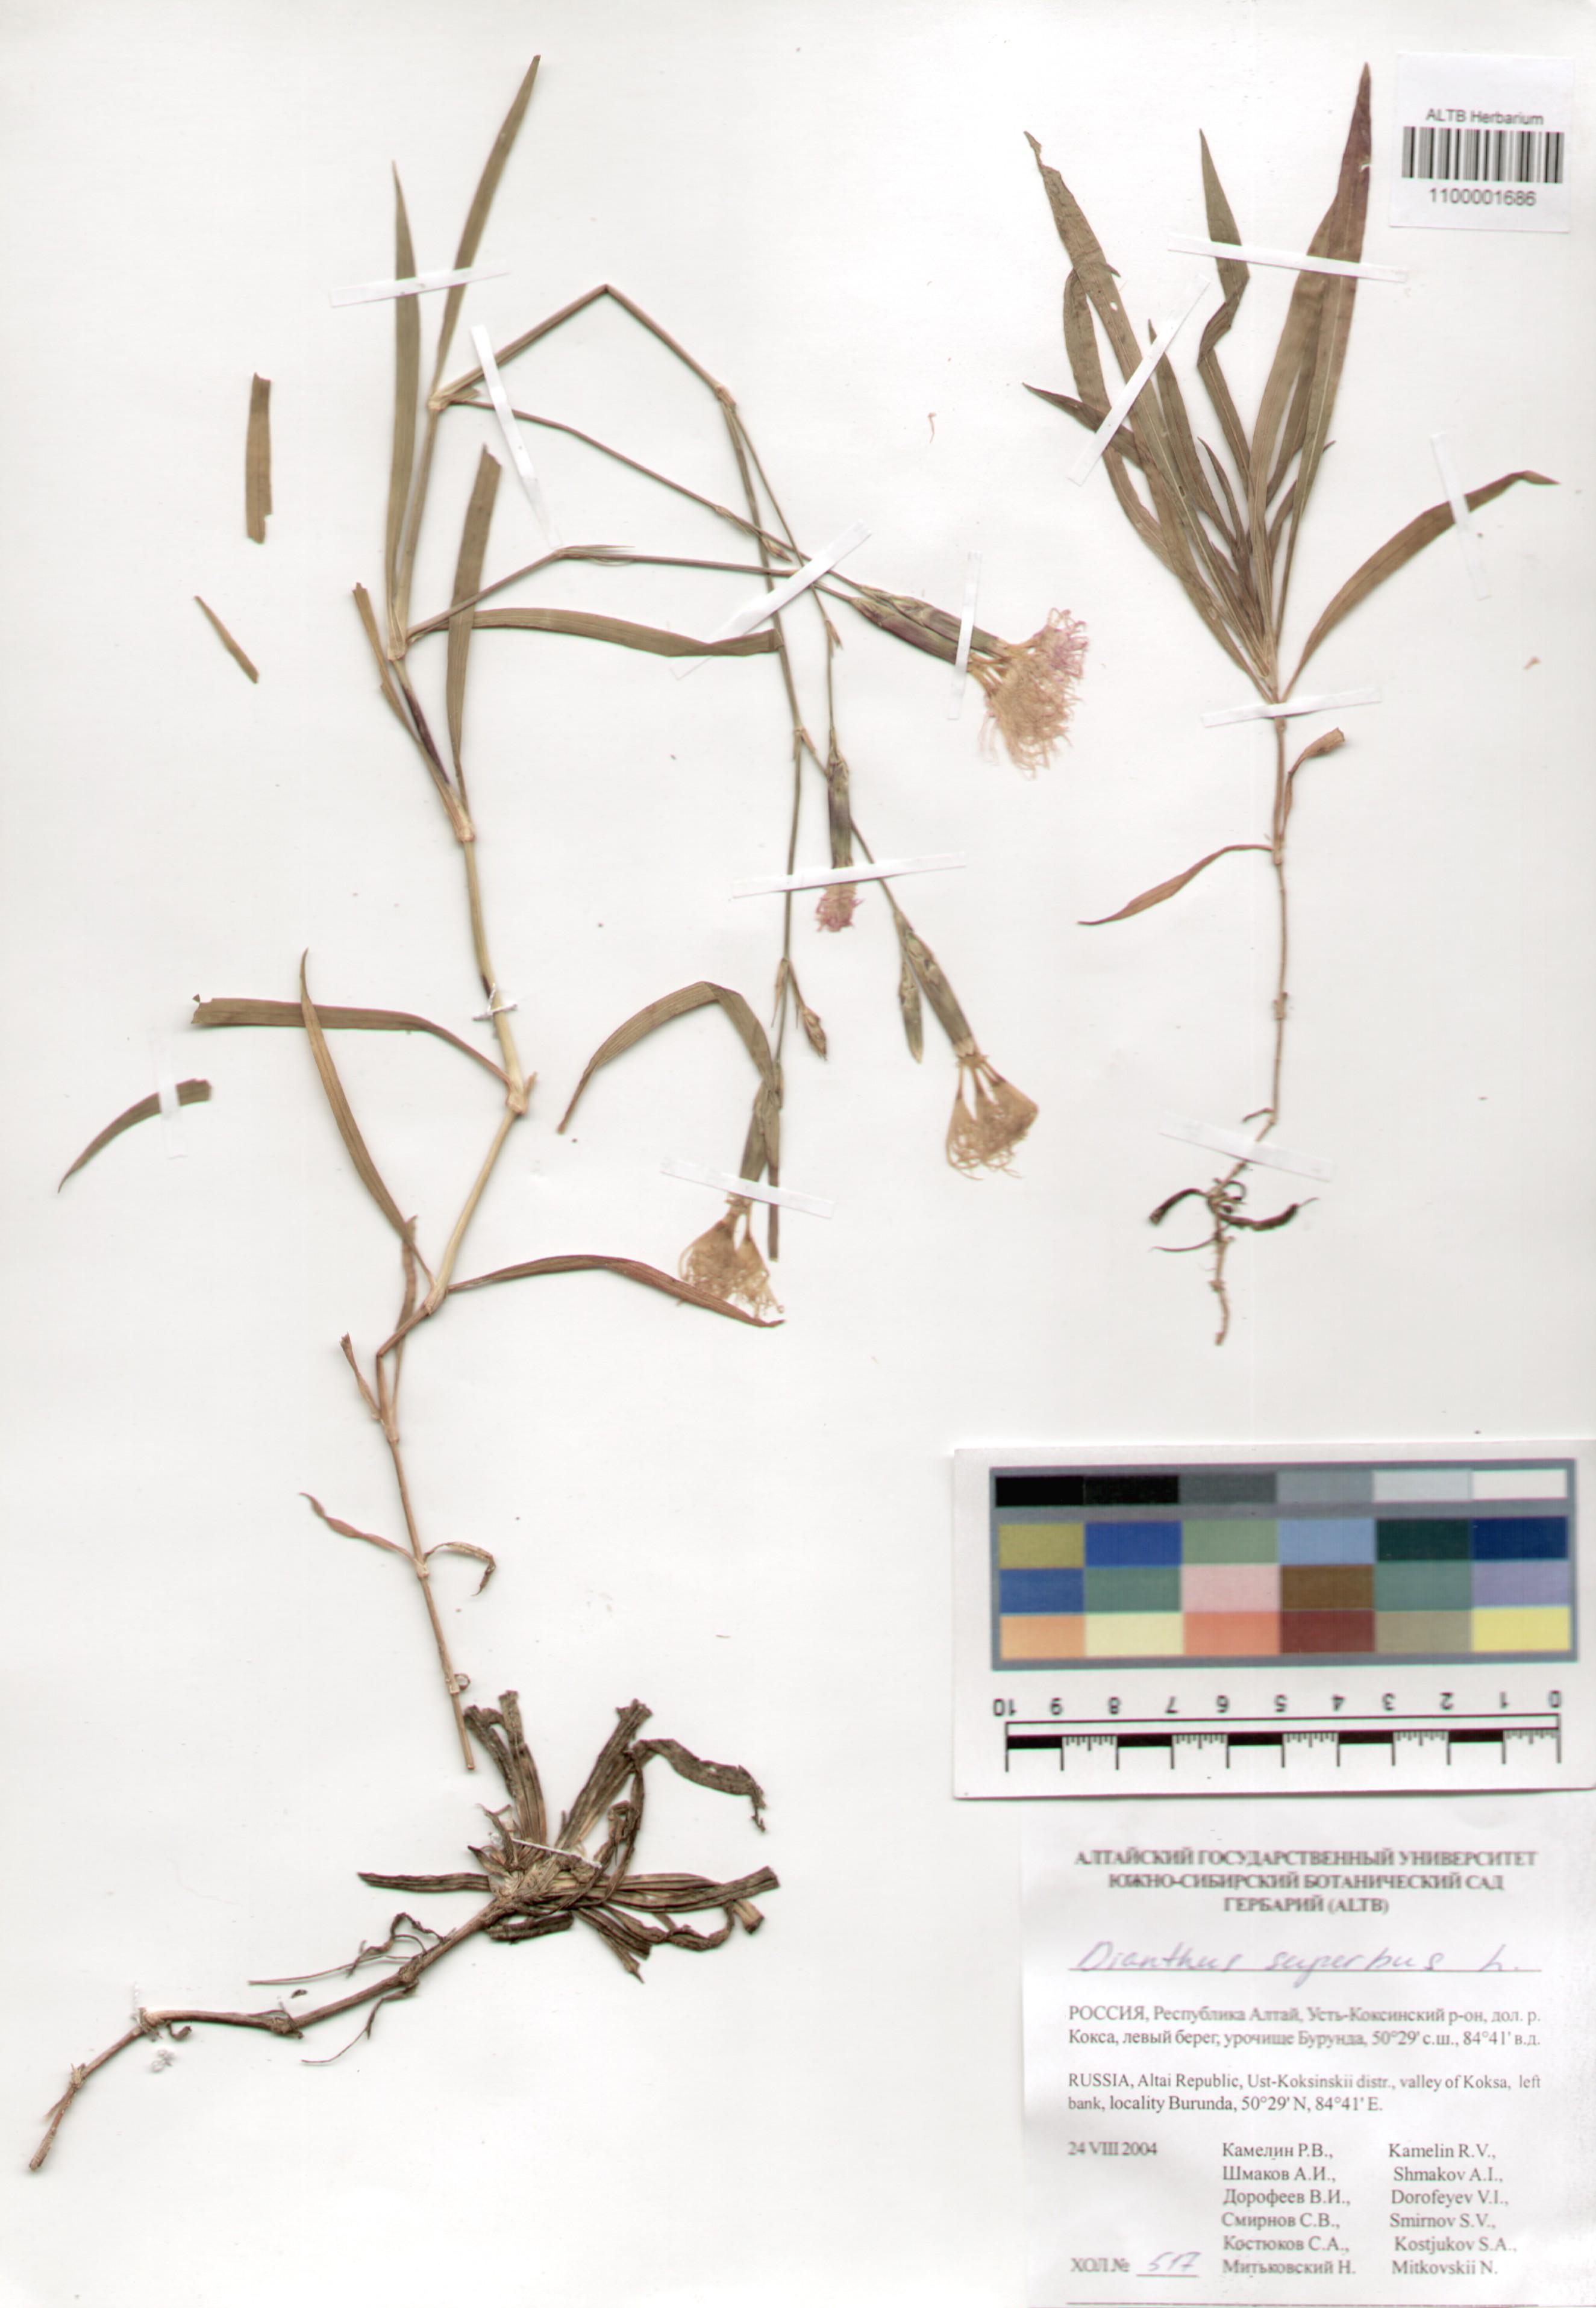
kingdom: Plantae
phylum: Tracheophyta
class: Magnoliopsida
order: Caryophyllales
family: Caryophyllaceae
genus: Dianthus
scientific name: Dianthus superbus
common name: Fringed pink
